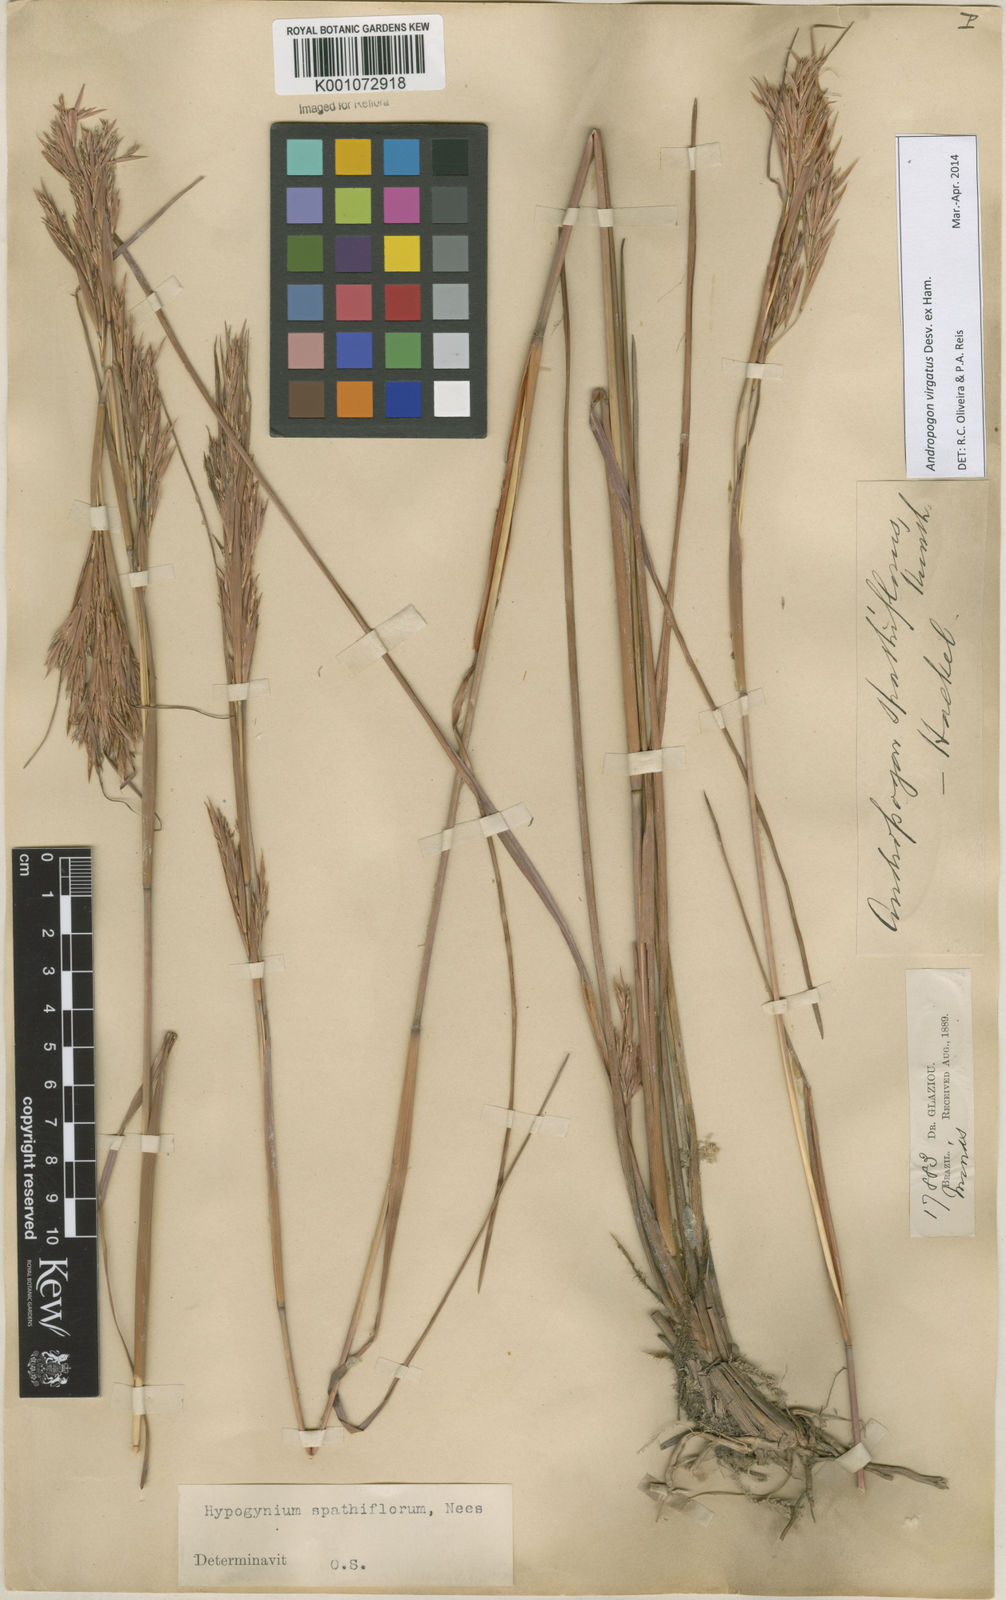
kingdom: Plantae
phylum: Tracheophyta
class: Liliopsida
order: Poales
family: Poaceae
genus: Andropogon
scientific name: Andropogon virgatus
